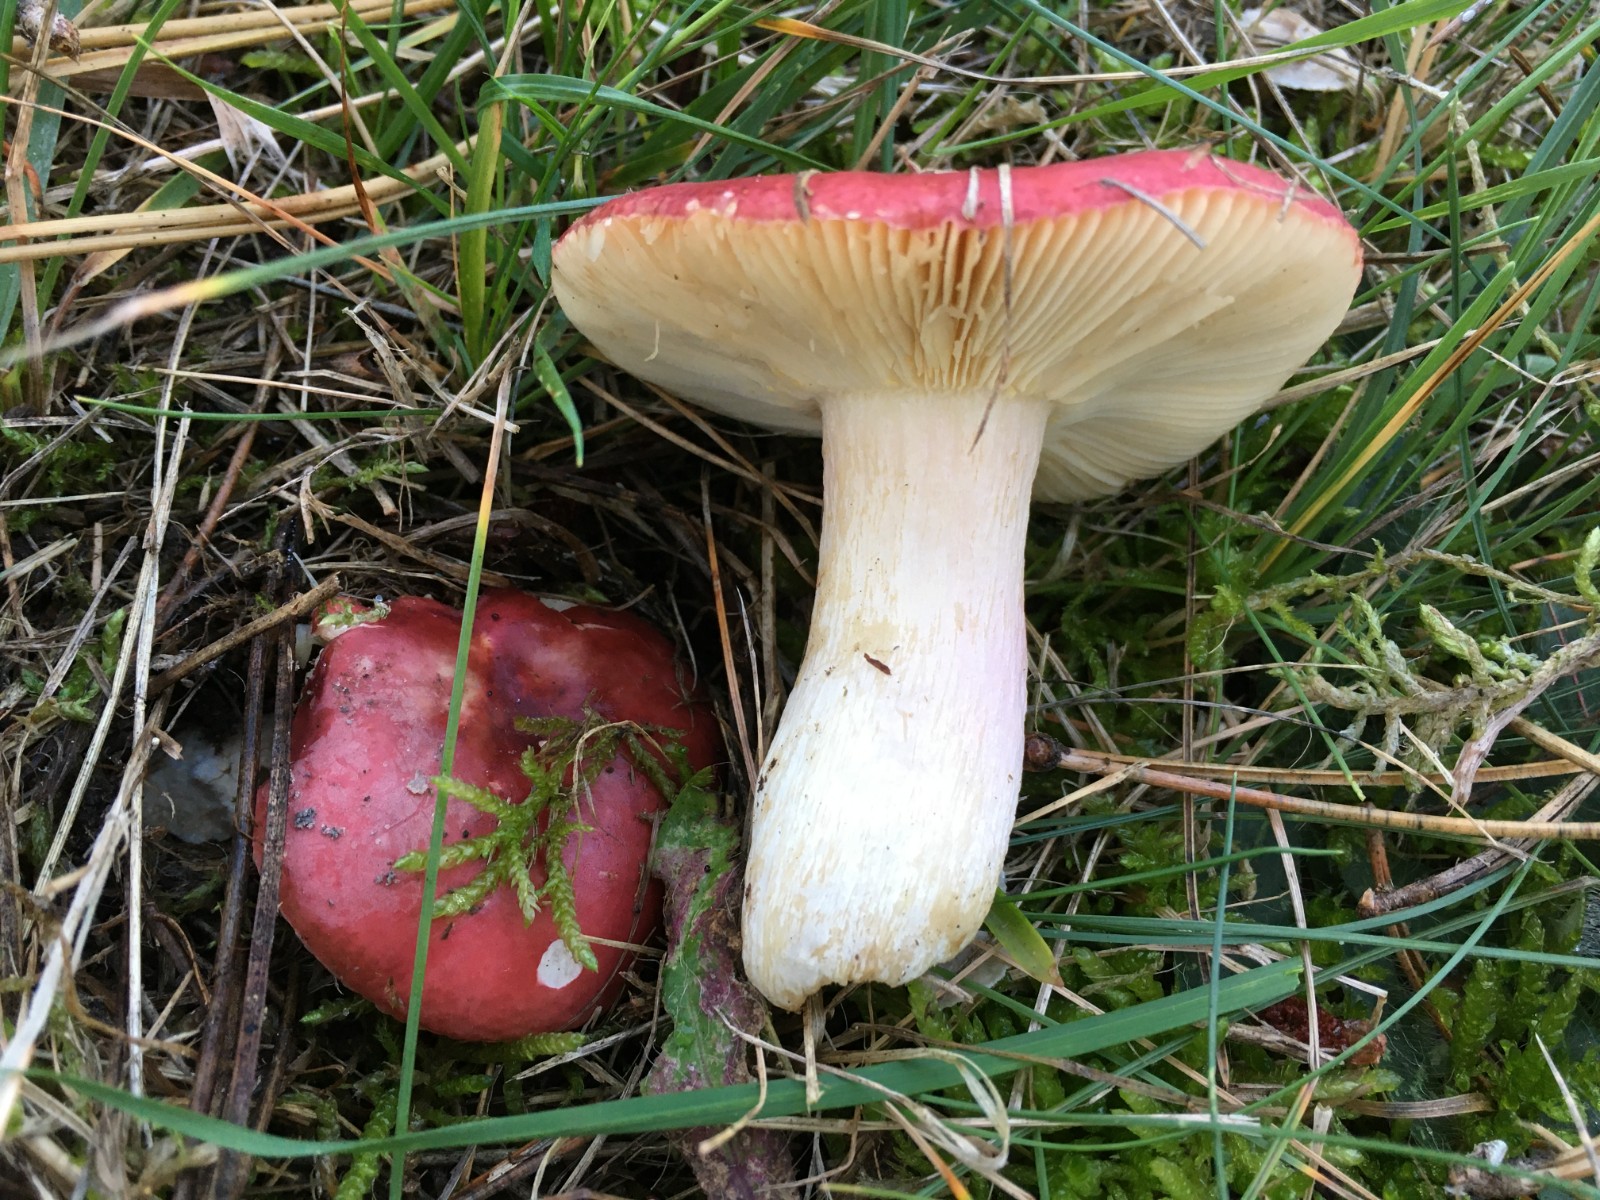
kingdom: Fungi
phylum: Basidiomycota
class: Agaricomycetes
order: Russulales
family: Russulaceae
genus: Russula
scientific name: Russula xerampelina
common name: hummer-skørhat
